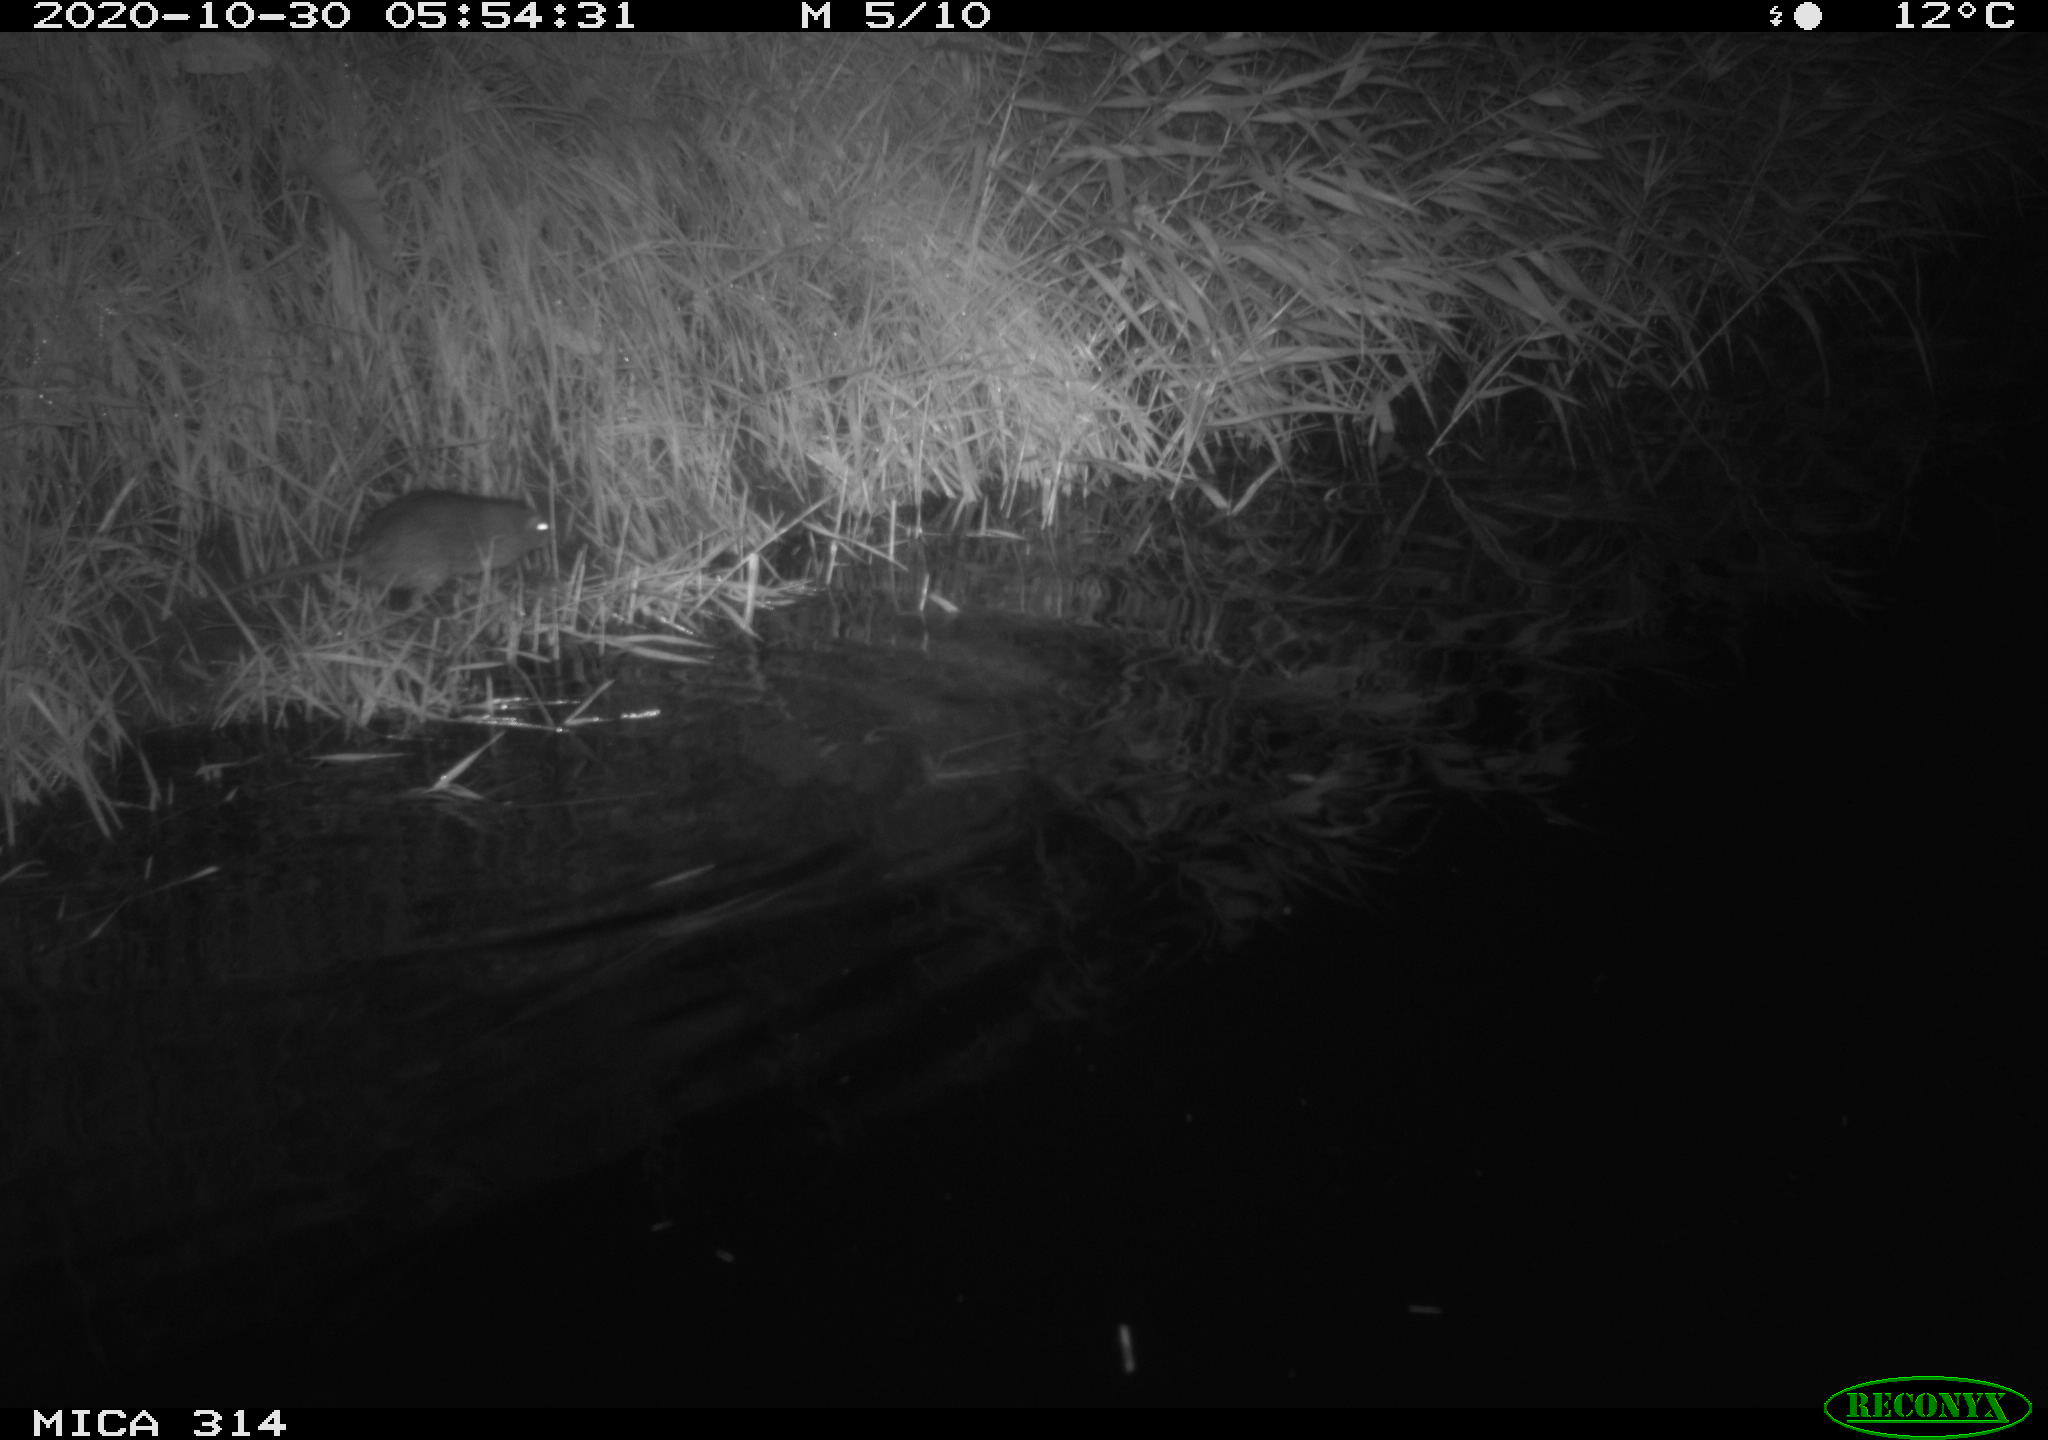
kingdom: Animalia
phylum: Chordata
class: Mammalia
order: Rodentia
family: Muridae
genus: Rattus
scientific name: Rattus norvegicus
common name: Brown rat
